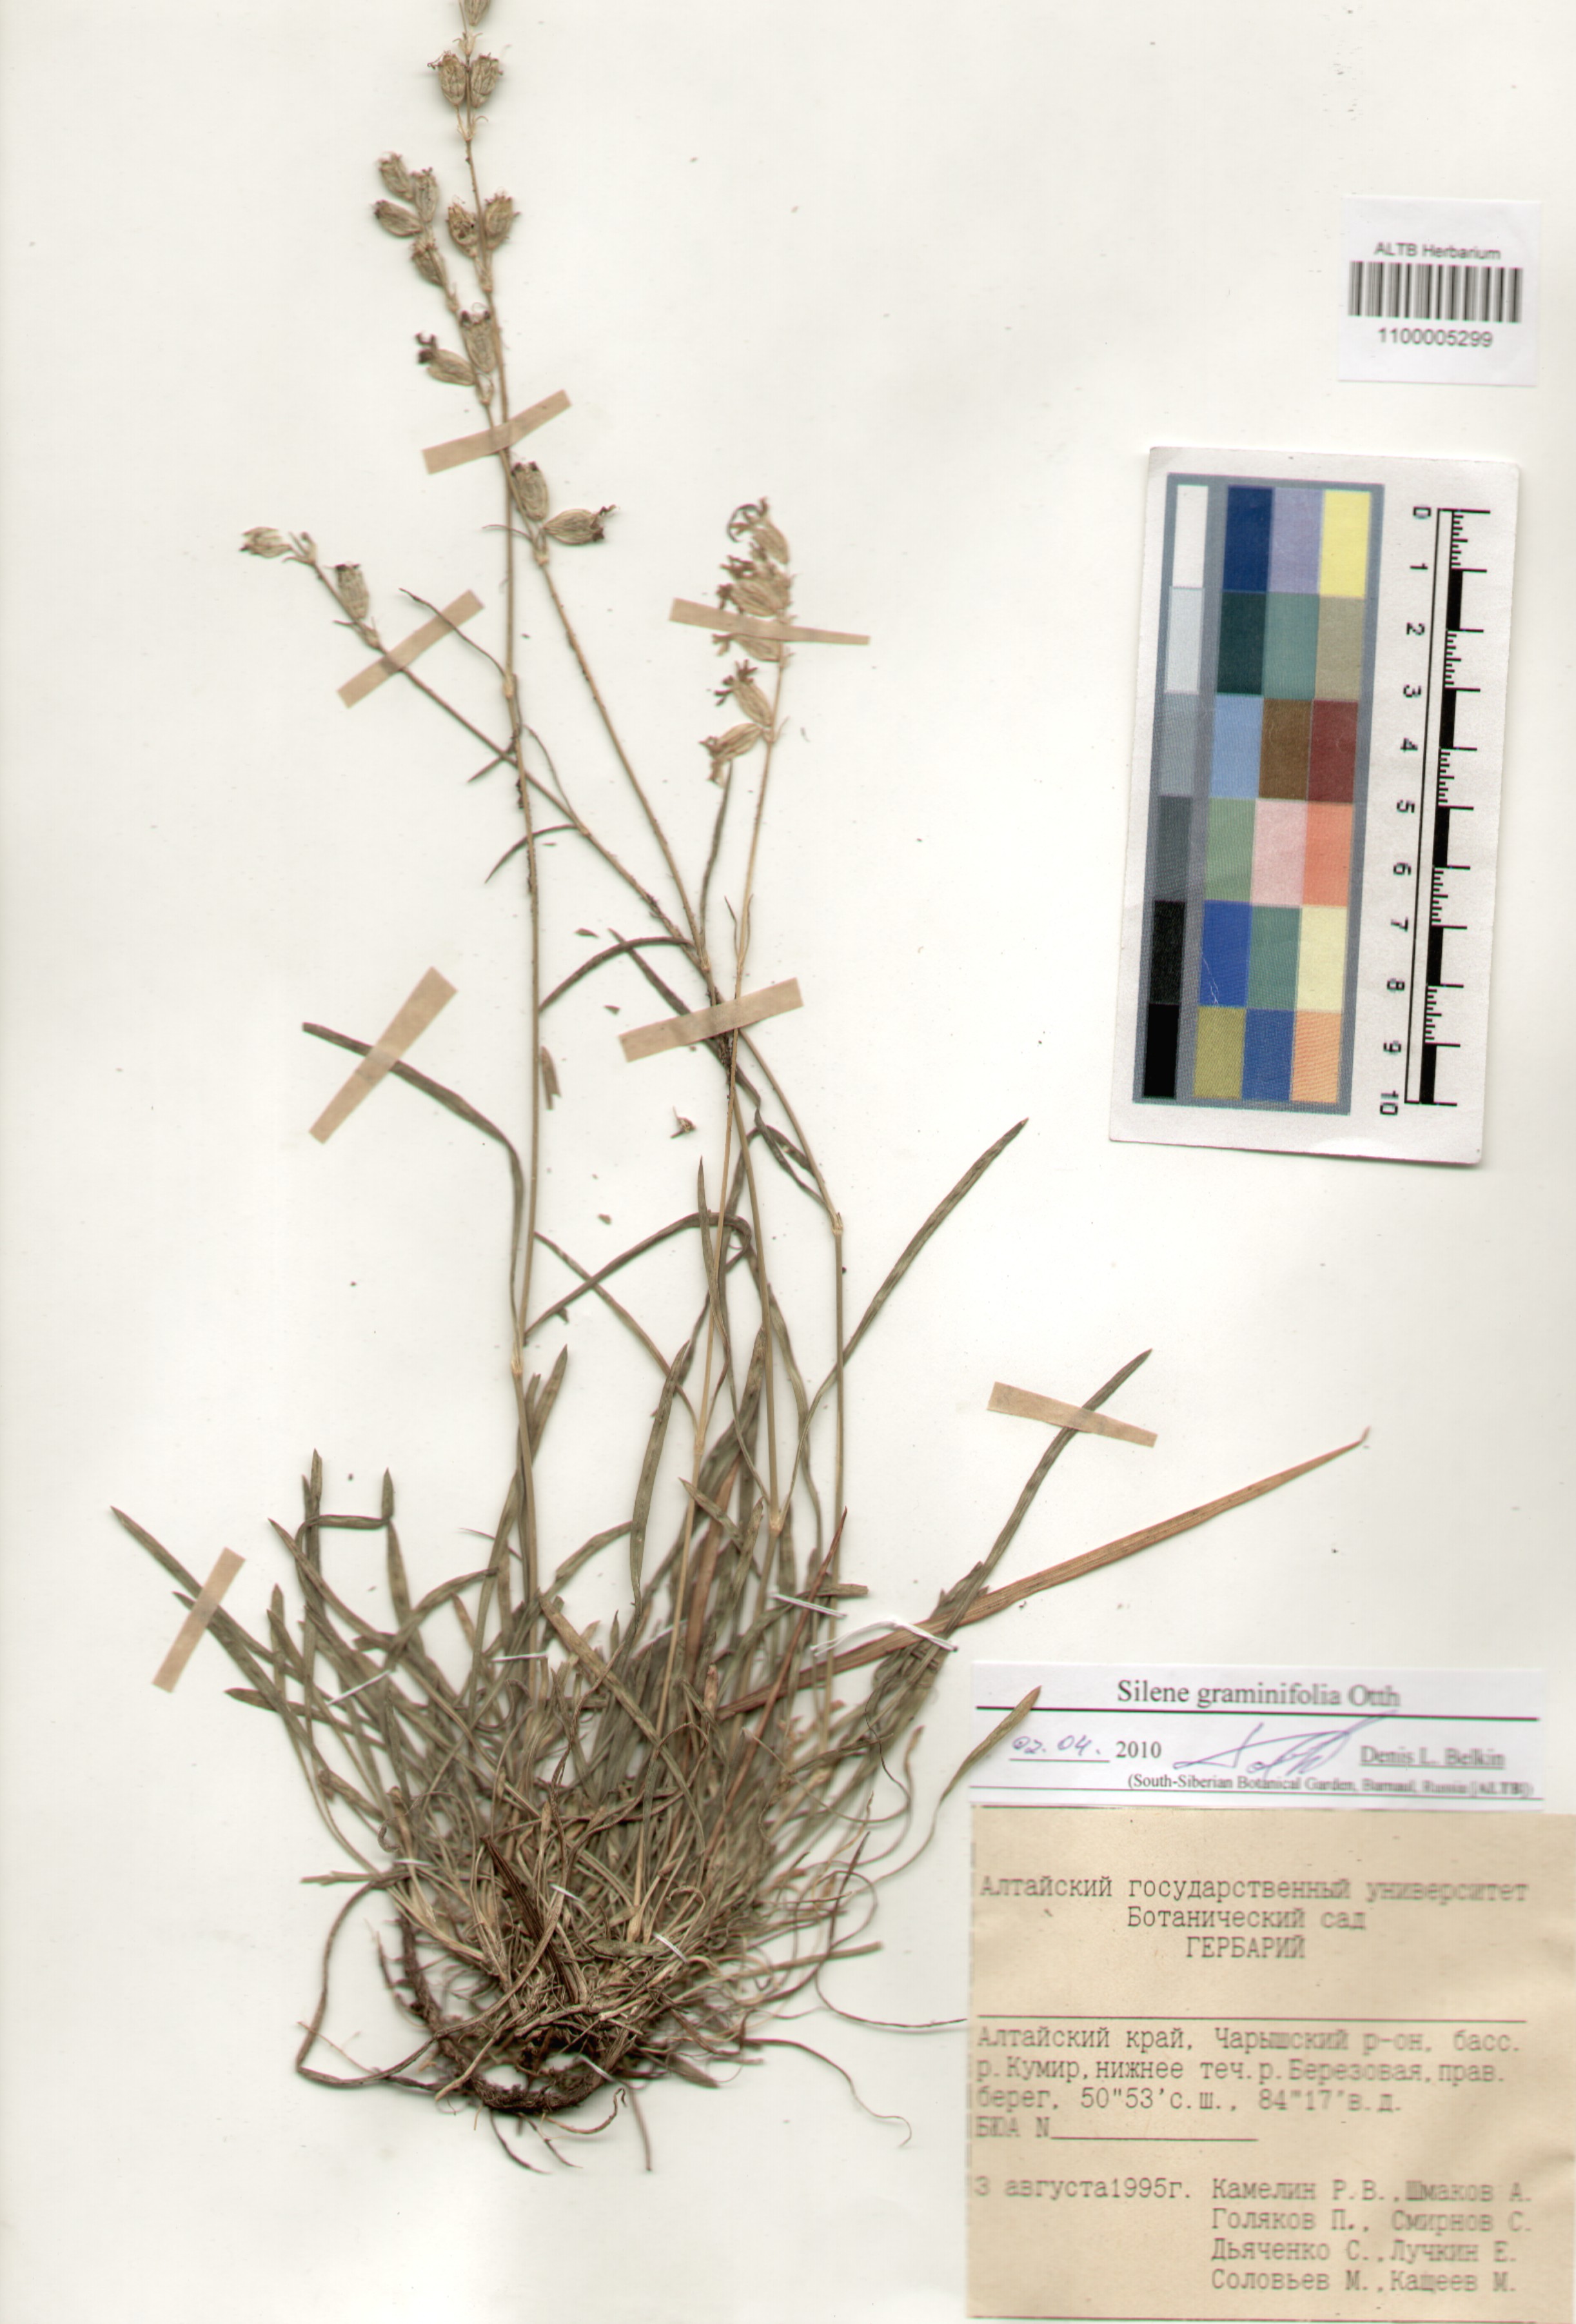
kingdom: Plantae
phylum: Tracheophyta
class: Magnoliopsida
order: Caryophyllales
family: Caryophyllaceae
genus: Silene
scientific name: Silene graminifolia
